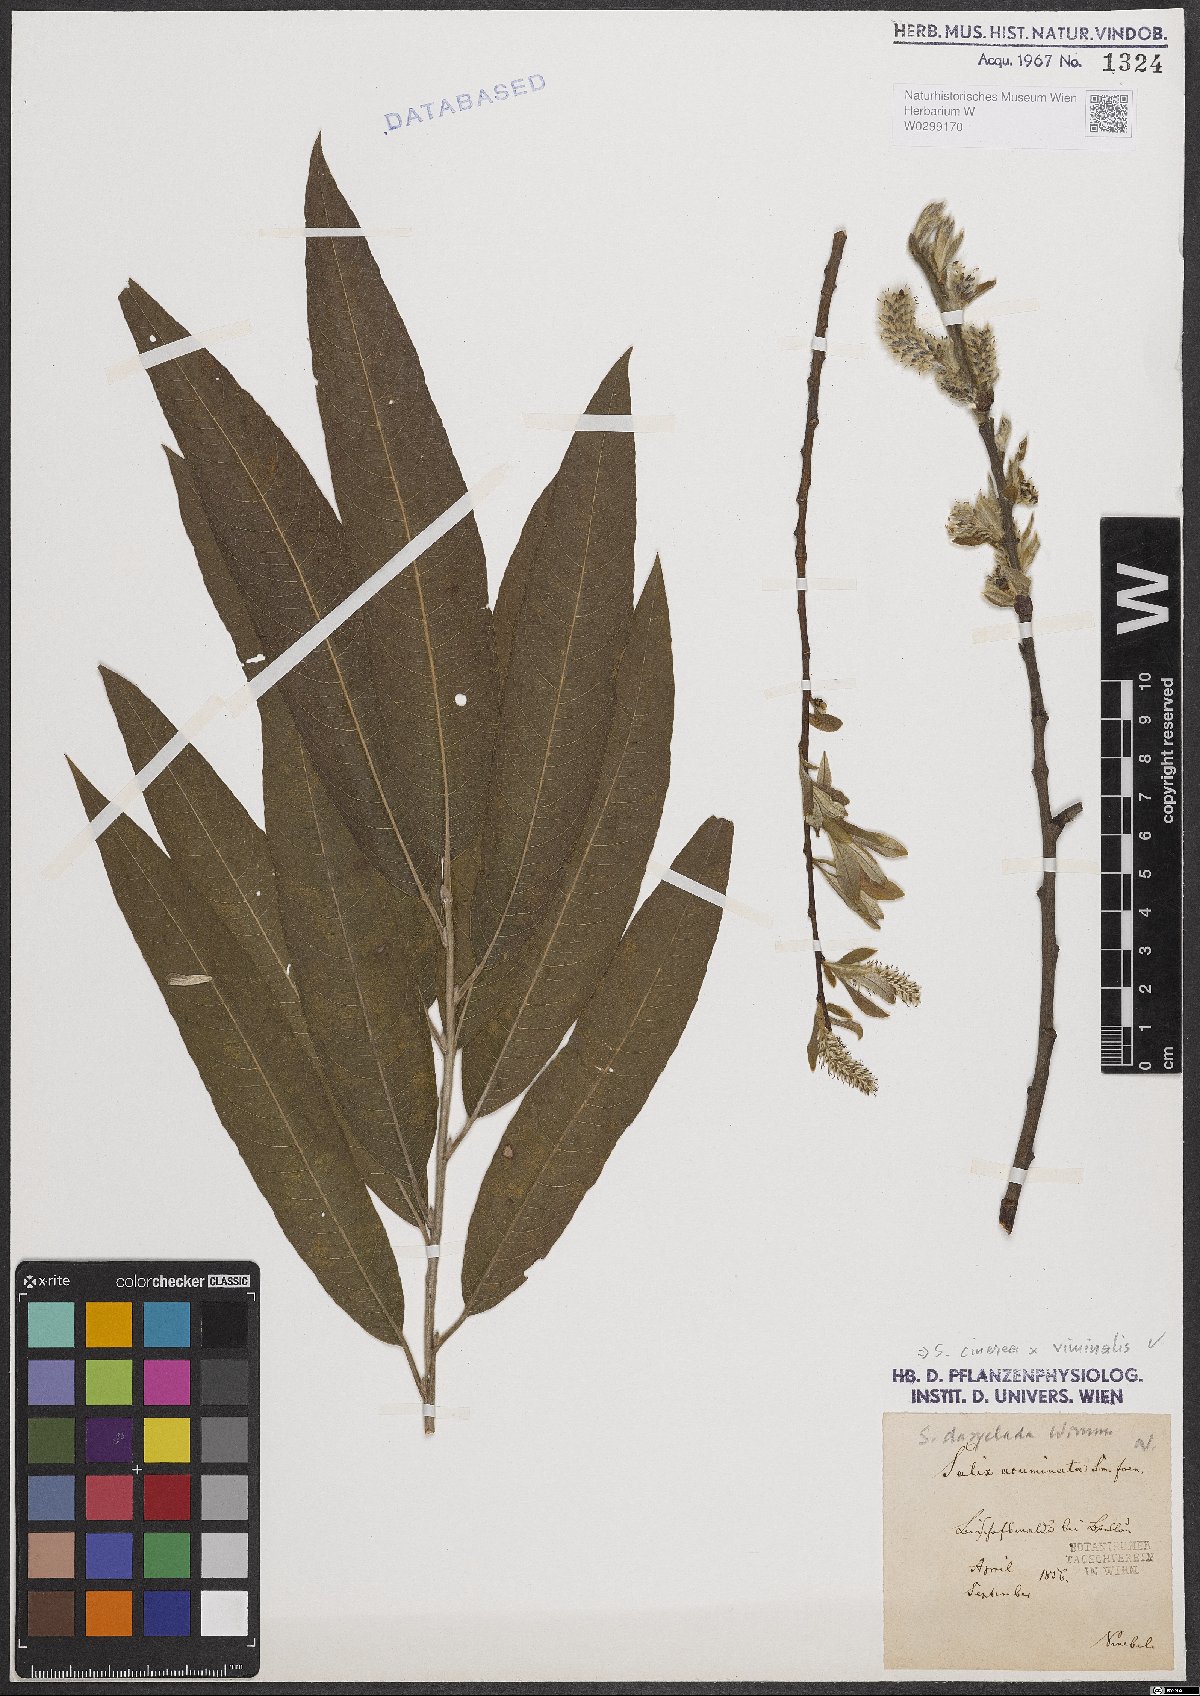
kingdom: Plantae
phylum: Tracheophyta
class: Magnoliopsida
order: Malpighiales
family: Salicaceae
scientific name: Salicaceae
